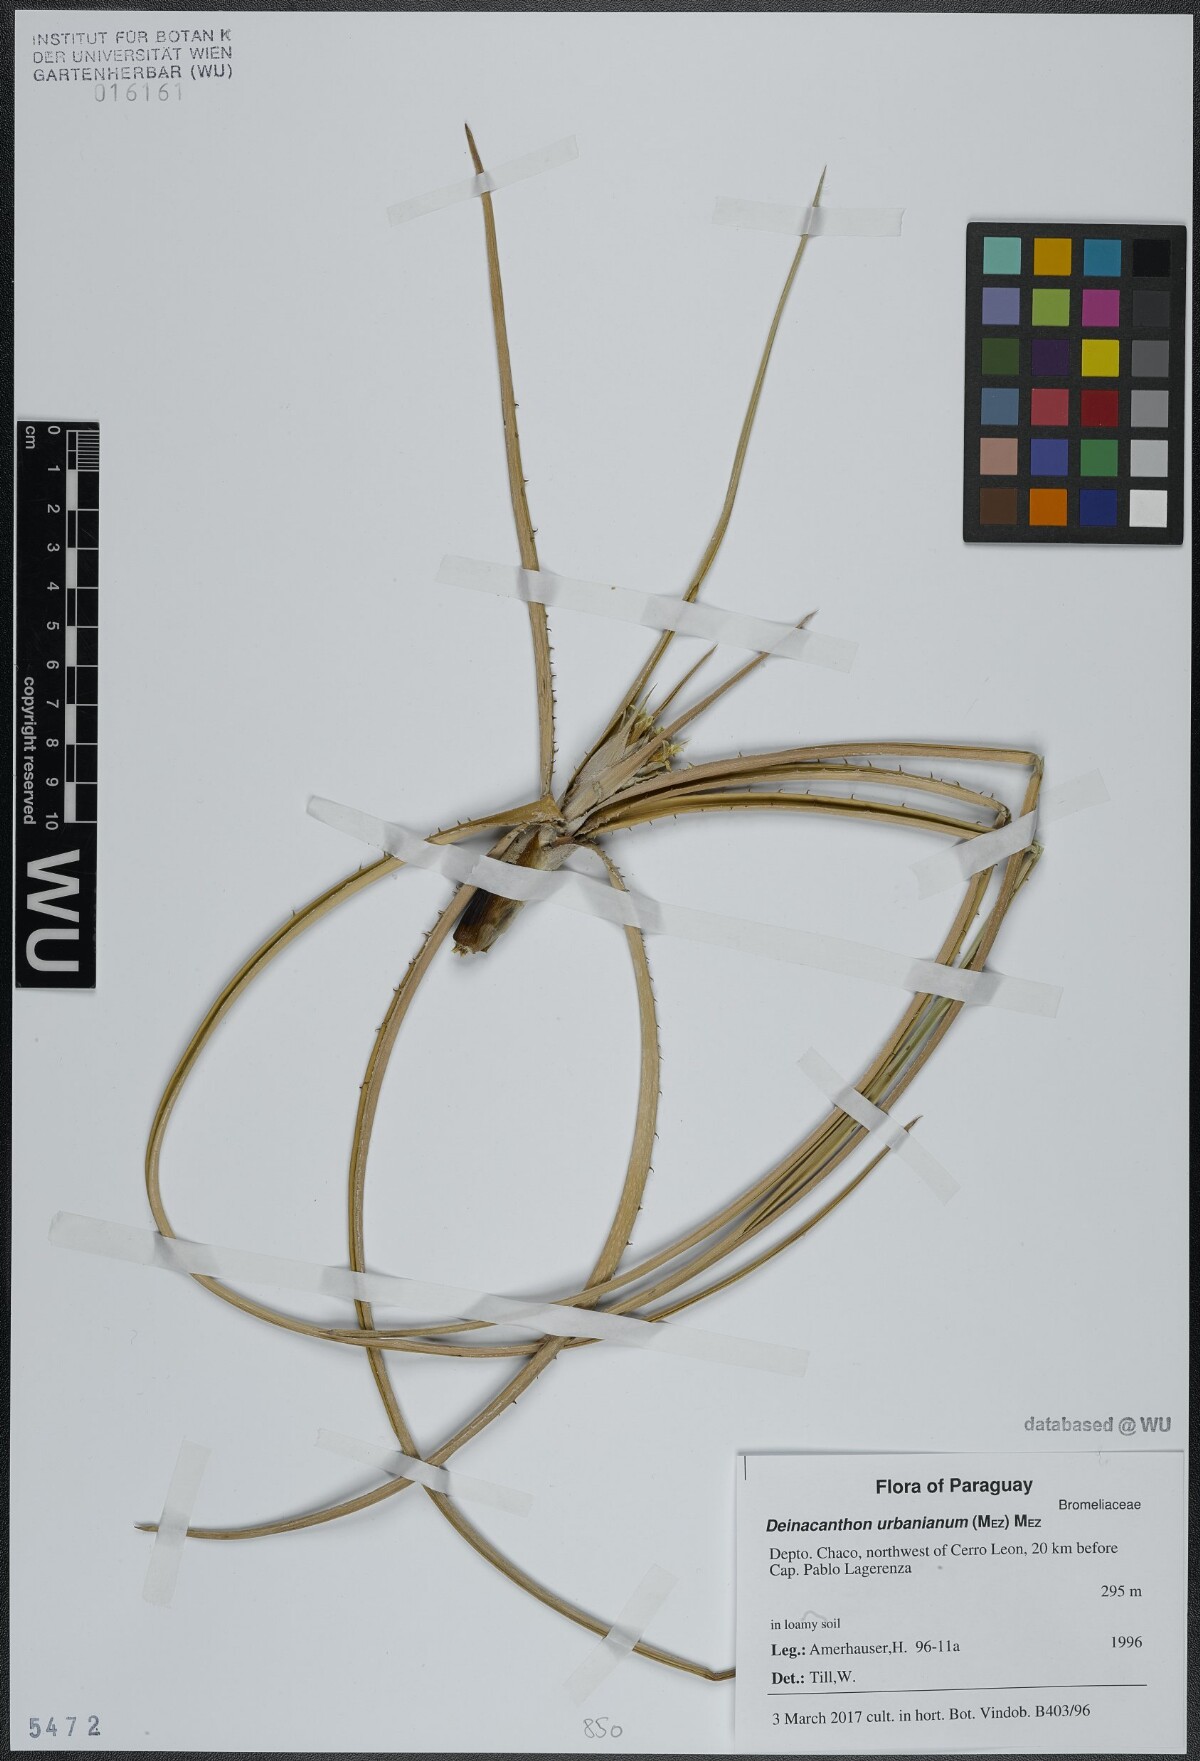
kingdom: Plantae
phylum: Tracheophyta
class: Liliopsida
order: Poales
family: Bromeliaceae
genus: Deinacanthon
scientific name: Deinacanthon urbanianum
